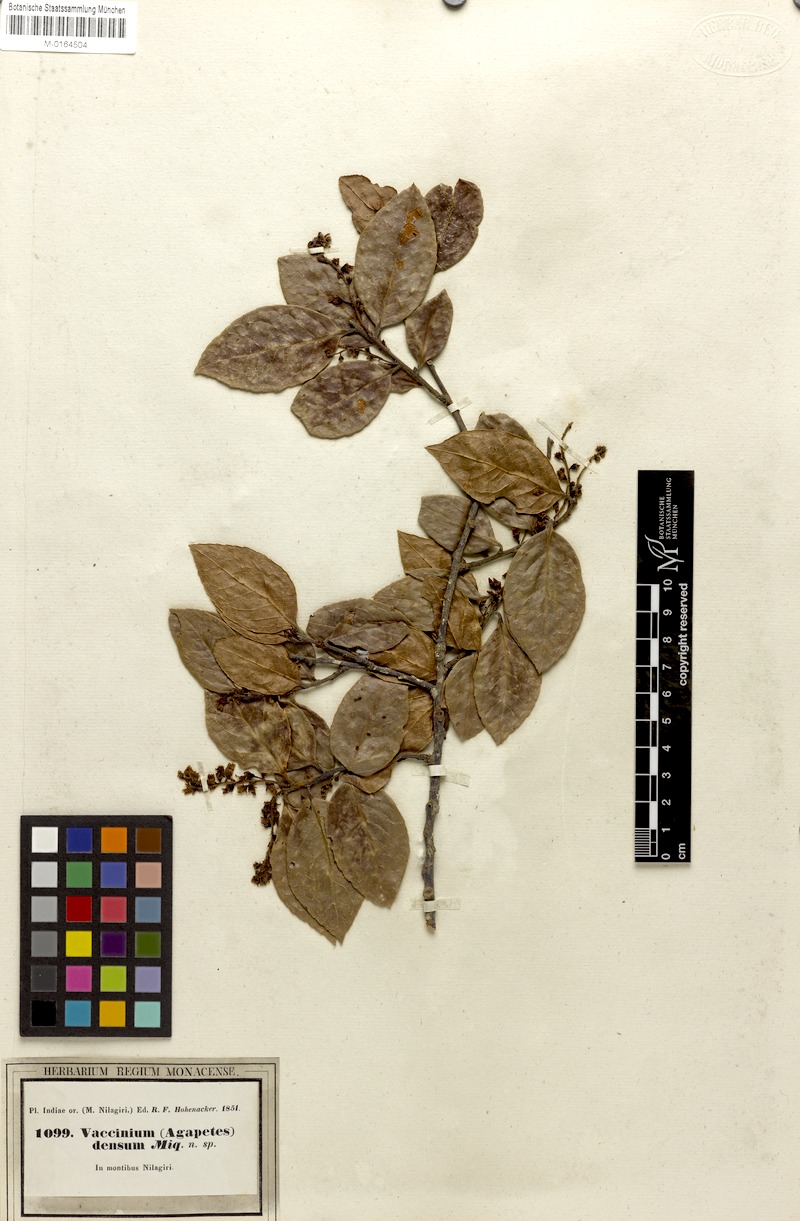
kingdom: Plantae
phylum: Tracheophyta
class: Magnoliopsida
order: Ericales
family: Ericaceae
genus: Vaccinium
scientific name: Vaccinium densum
